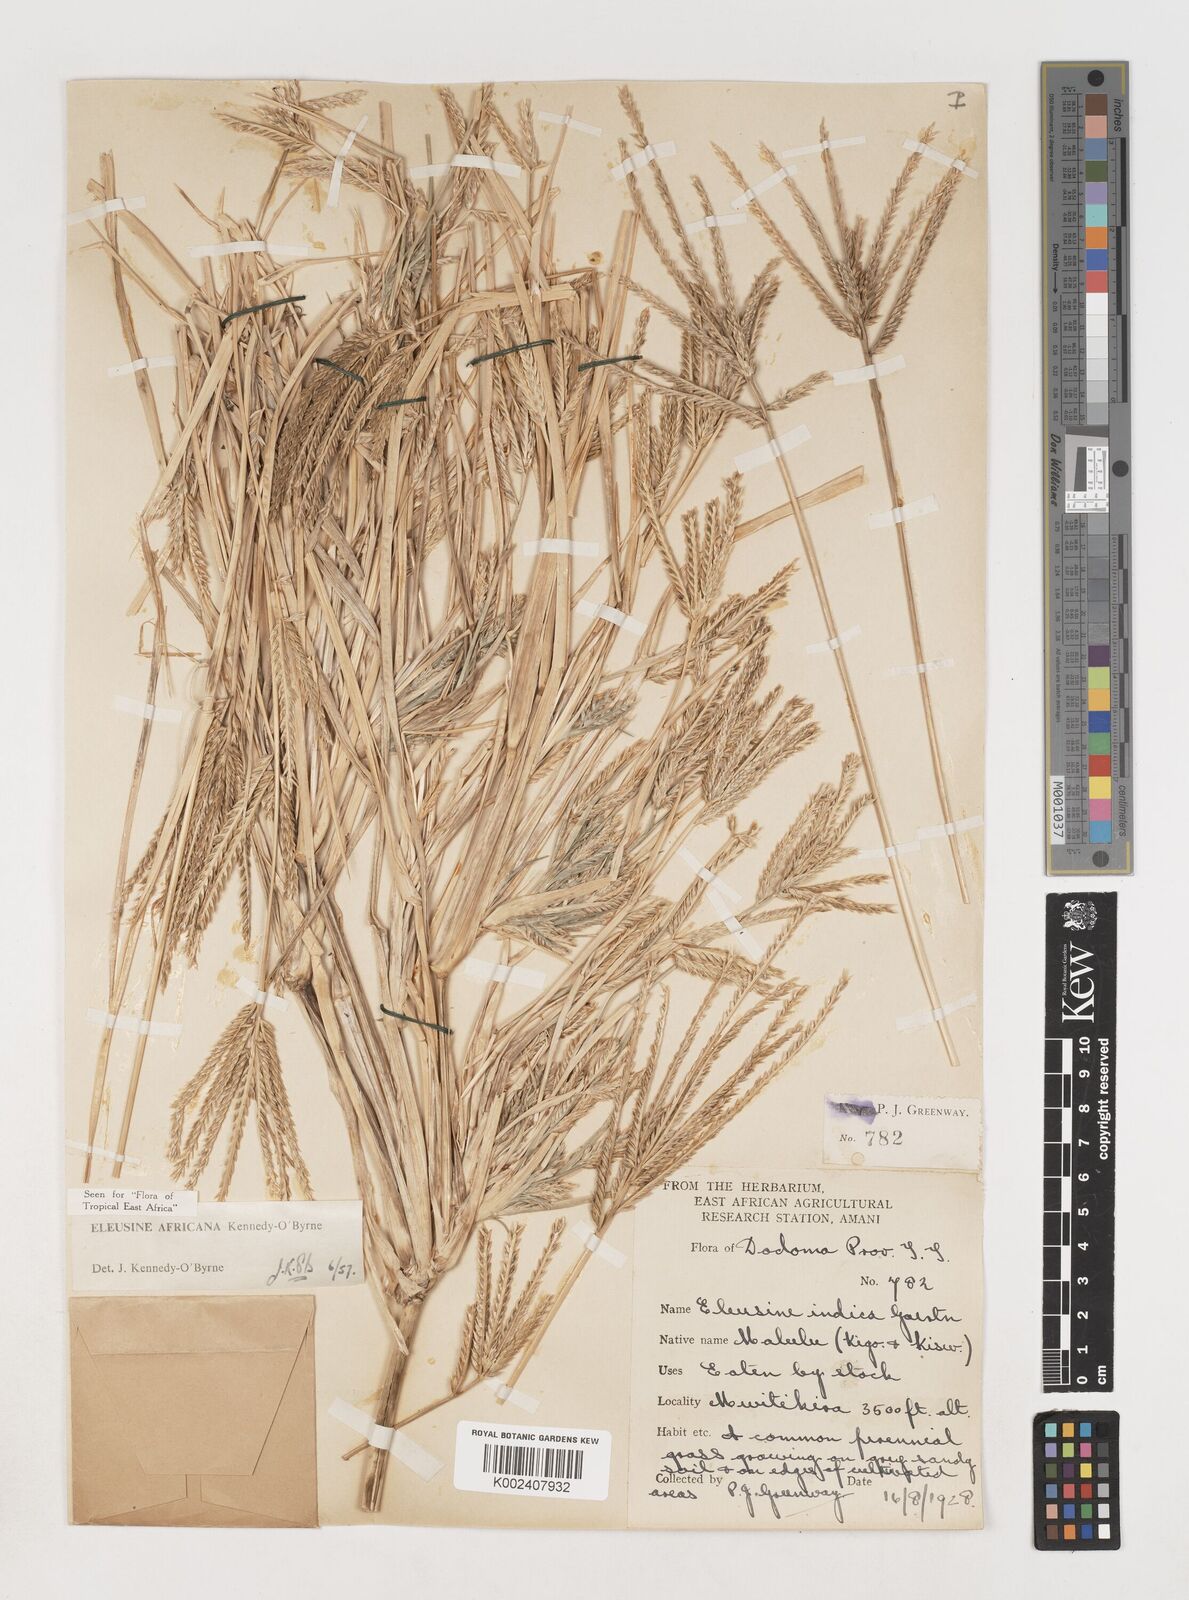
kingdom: Plantae
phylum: Tracheophyta
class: Liliopsida
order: Poales
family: Poaceae
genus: Eleusine
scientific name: Eleusine africana
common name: Wild african finger millet
